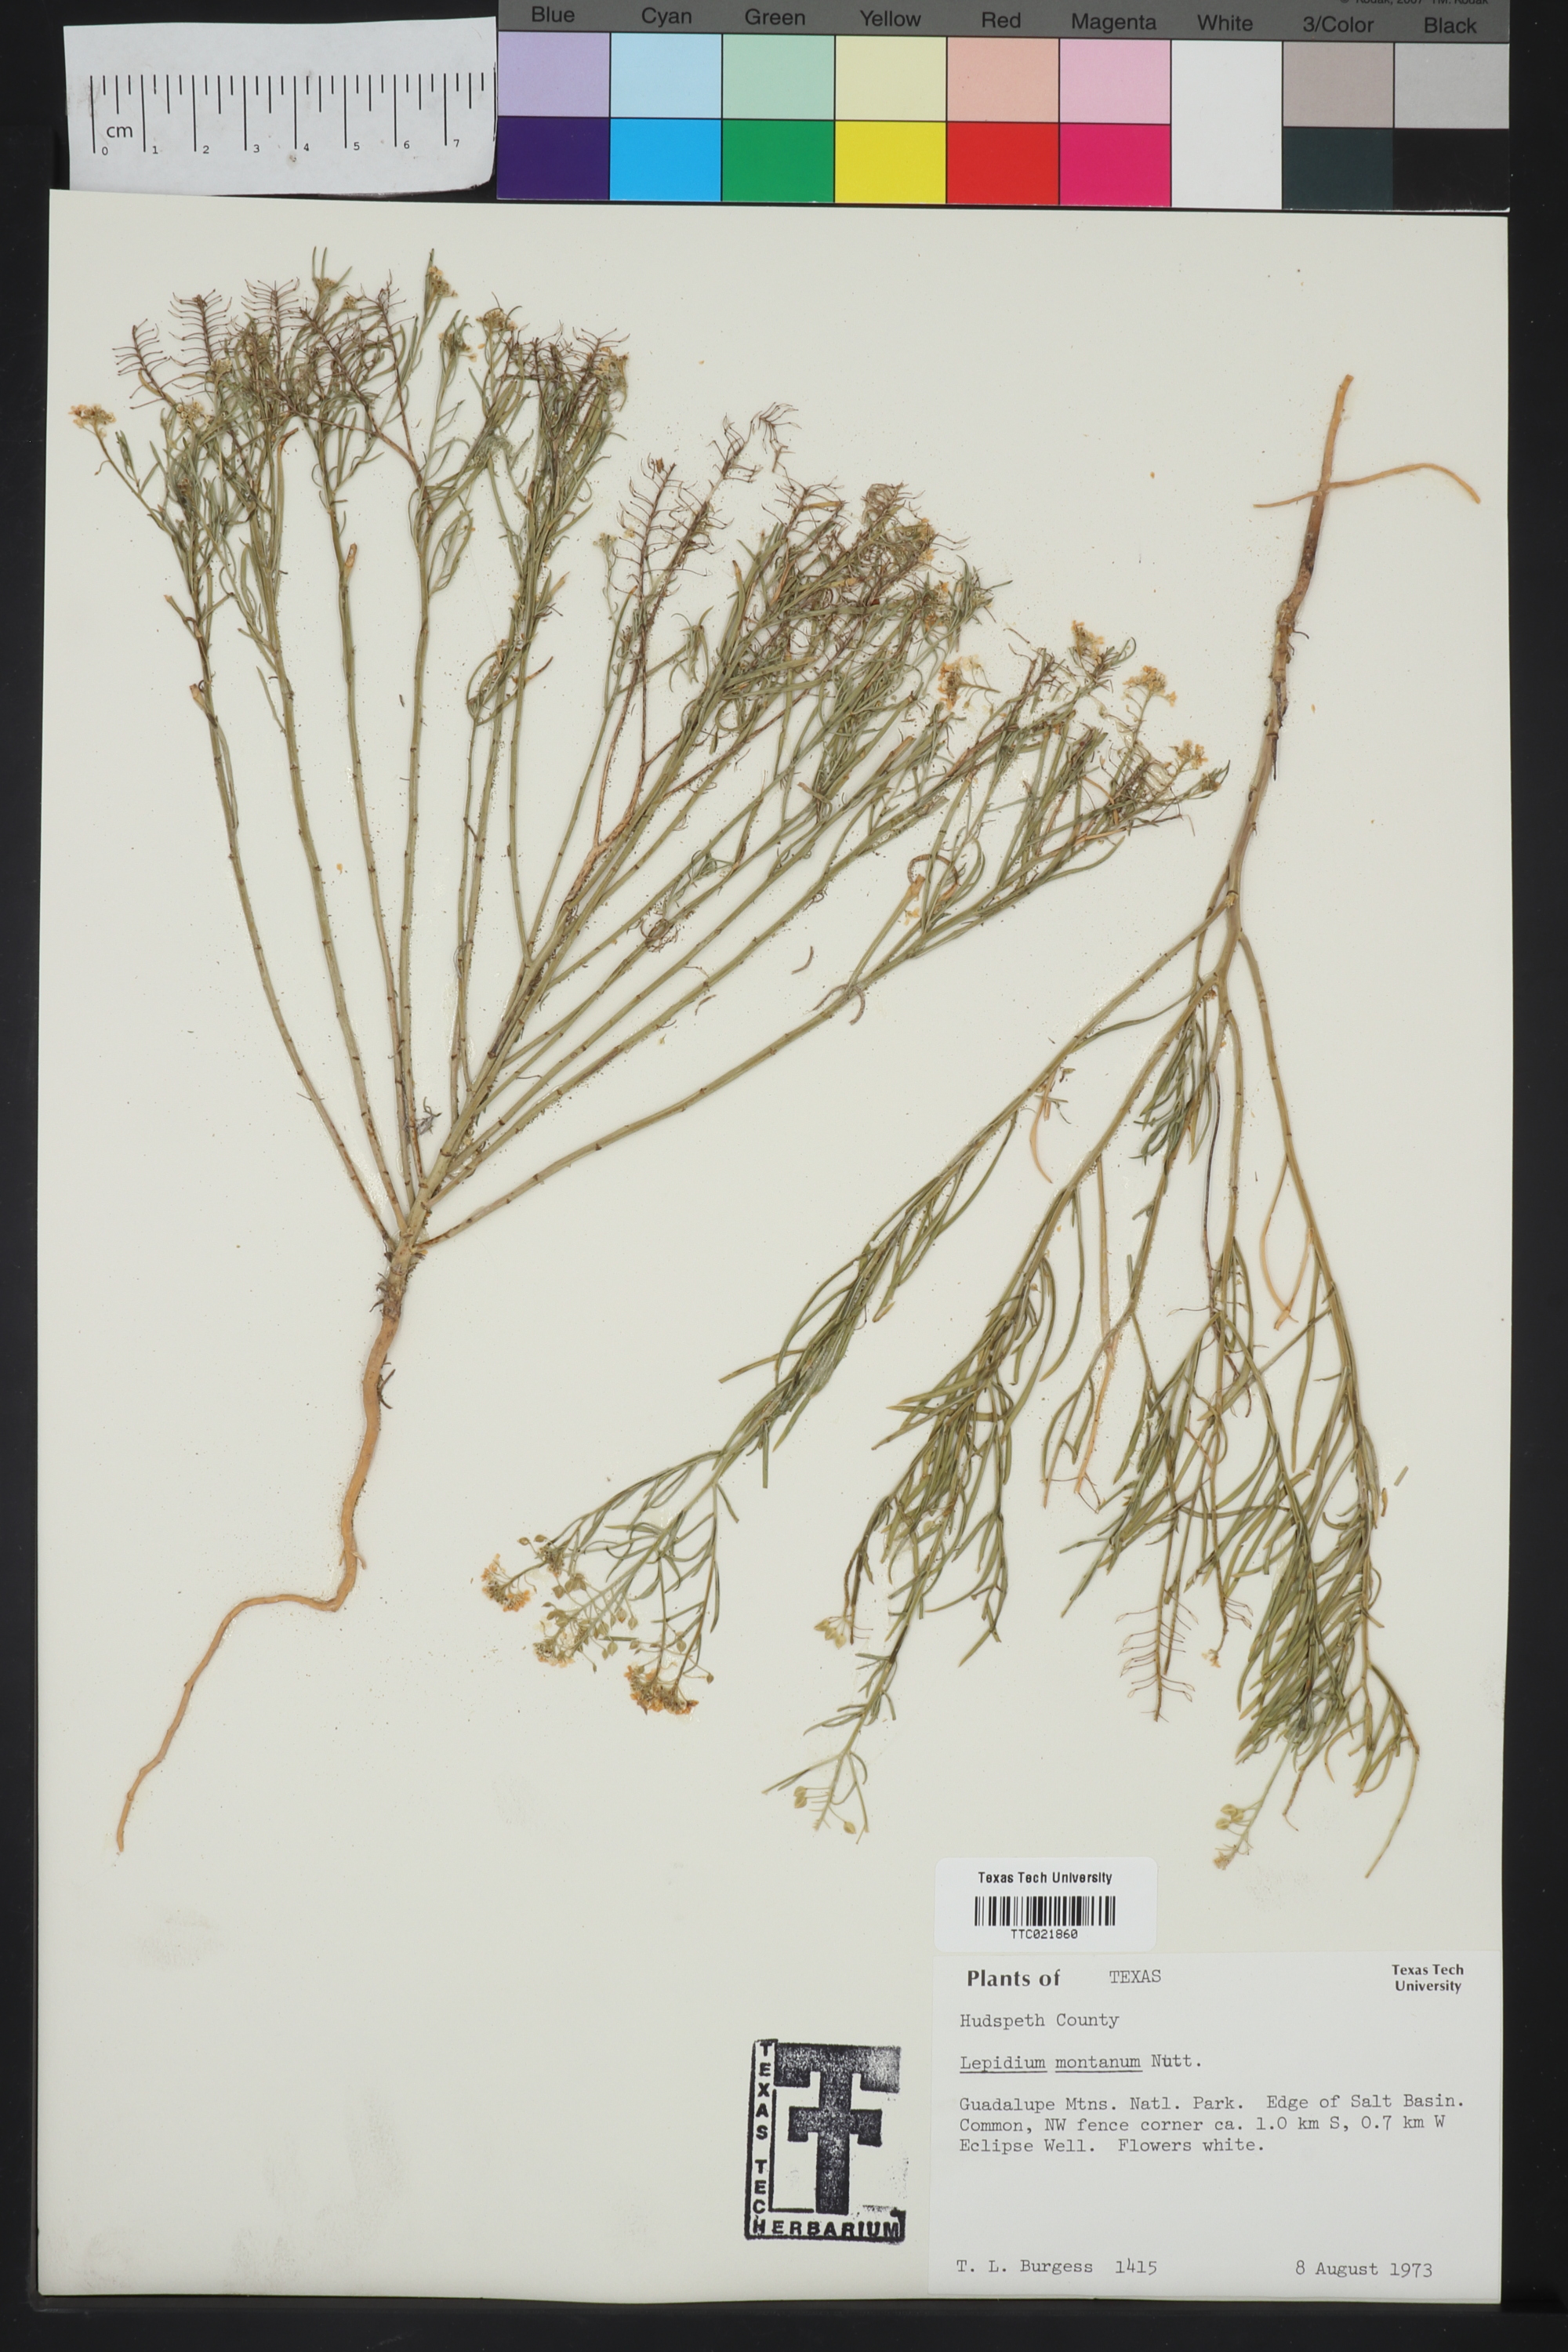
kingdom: Plantae
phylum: Tracheophyta
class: Magnoliopsida
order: Brassicales
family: Brassicaceae
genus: Lepidium
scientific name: Lepidium montanum
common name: Mountain pepperplant
